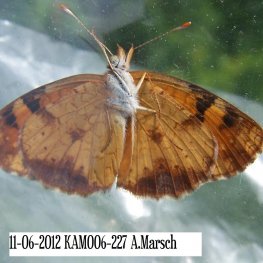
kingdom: Animalia
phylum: Arthropoda
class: Insecta
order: Lepidoptera
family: Nymphalidae
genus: Phyciodes
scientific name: Phyciodes tharos
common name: Northern Crescent
